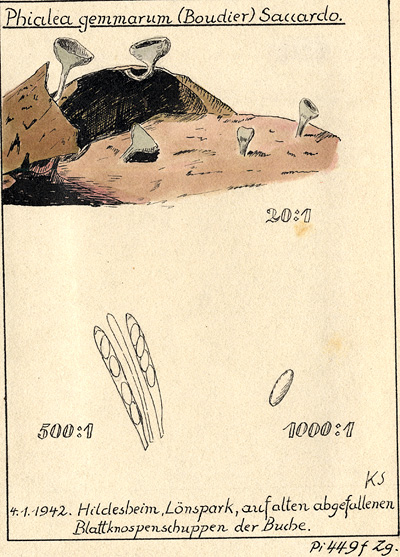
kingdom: Fungi
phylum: Ascomycota
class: Leotiomycetes
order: Helotiales
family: Pezizellaceae
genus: Gemmina
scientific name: Gemmina gemmarum
